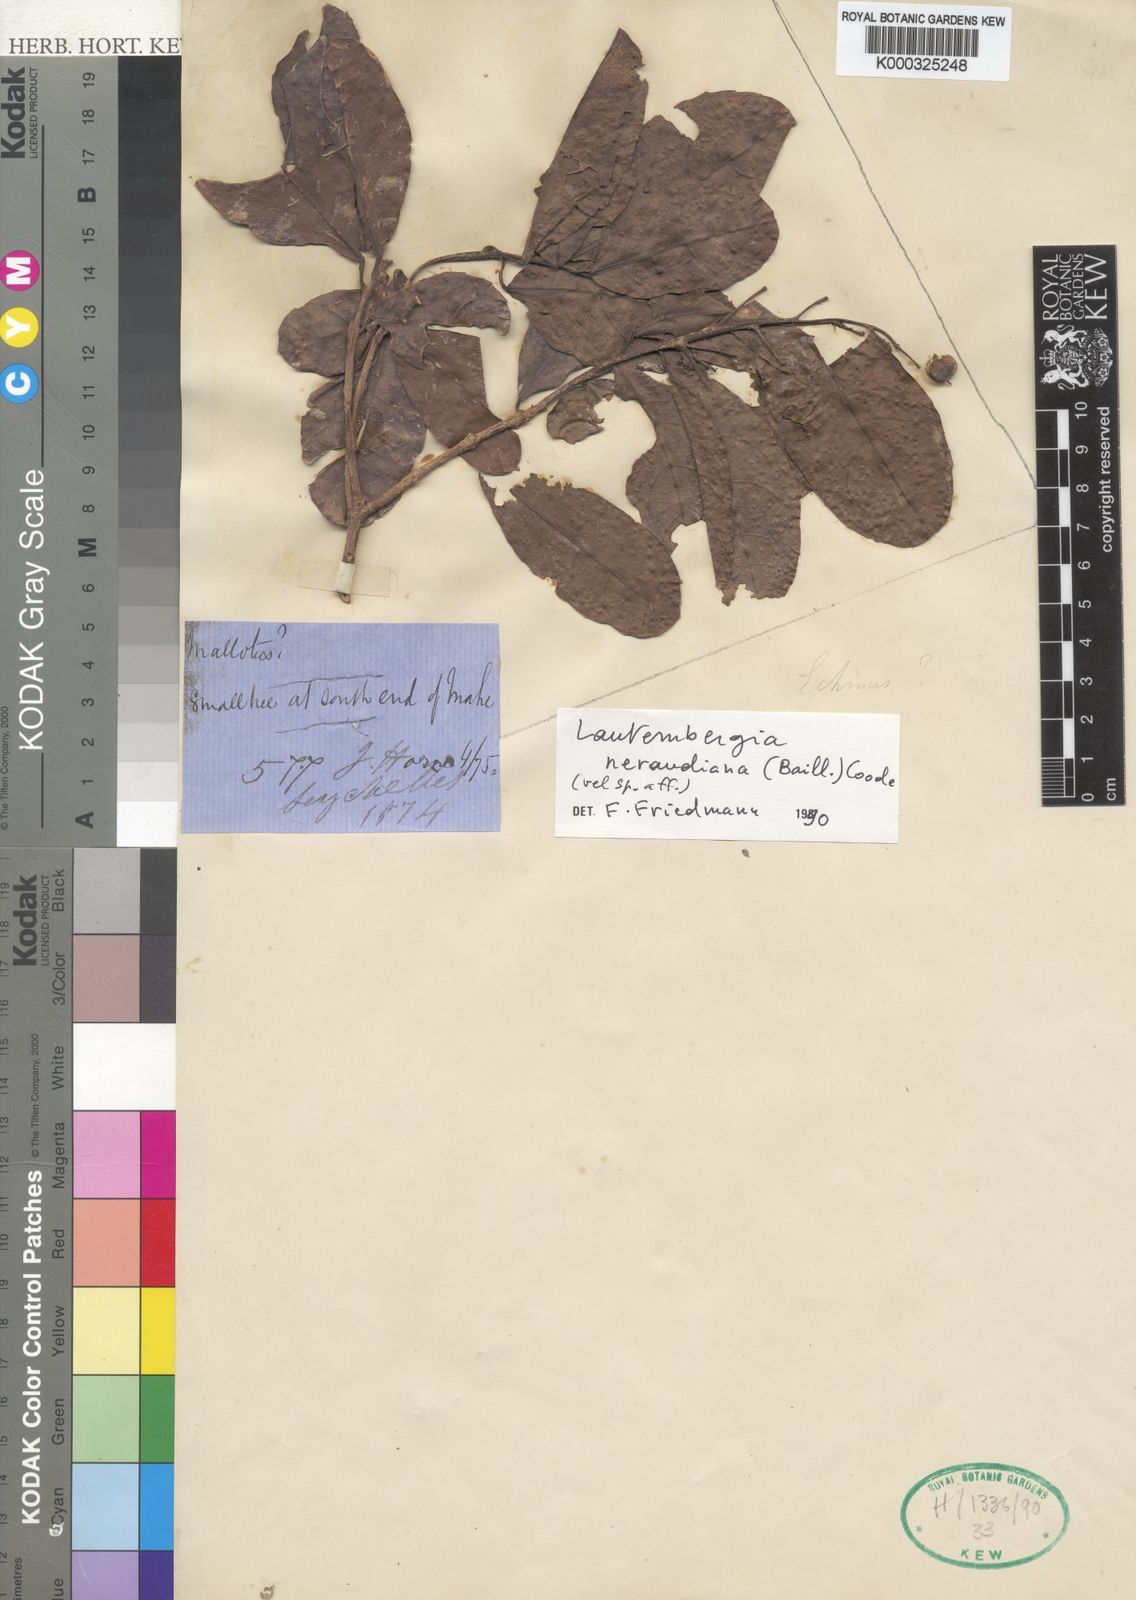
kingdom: Plantae
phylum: Tracheophyta
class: Magnoliopsida
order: Malpighiales
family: Euphorbiaceae
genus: Orfilea
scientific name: Orfilea neraudiana
